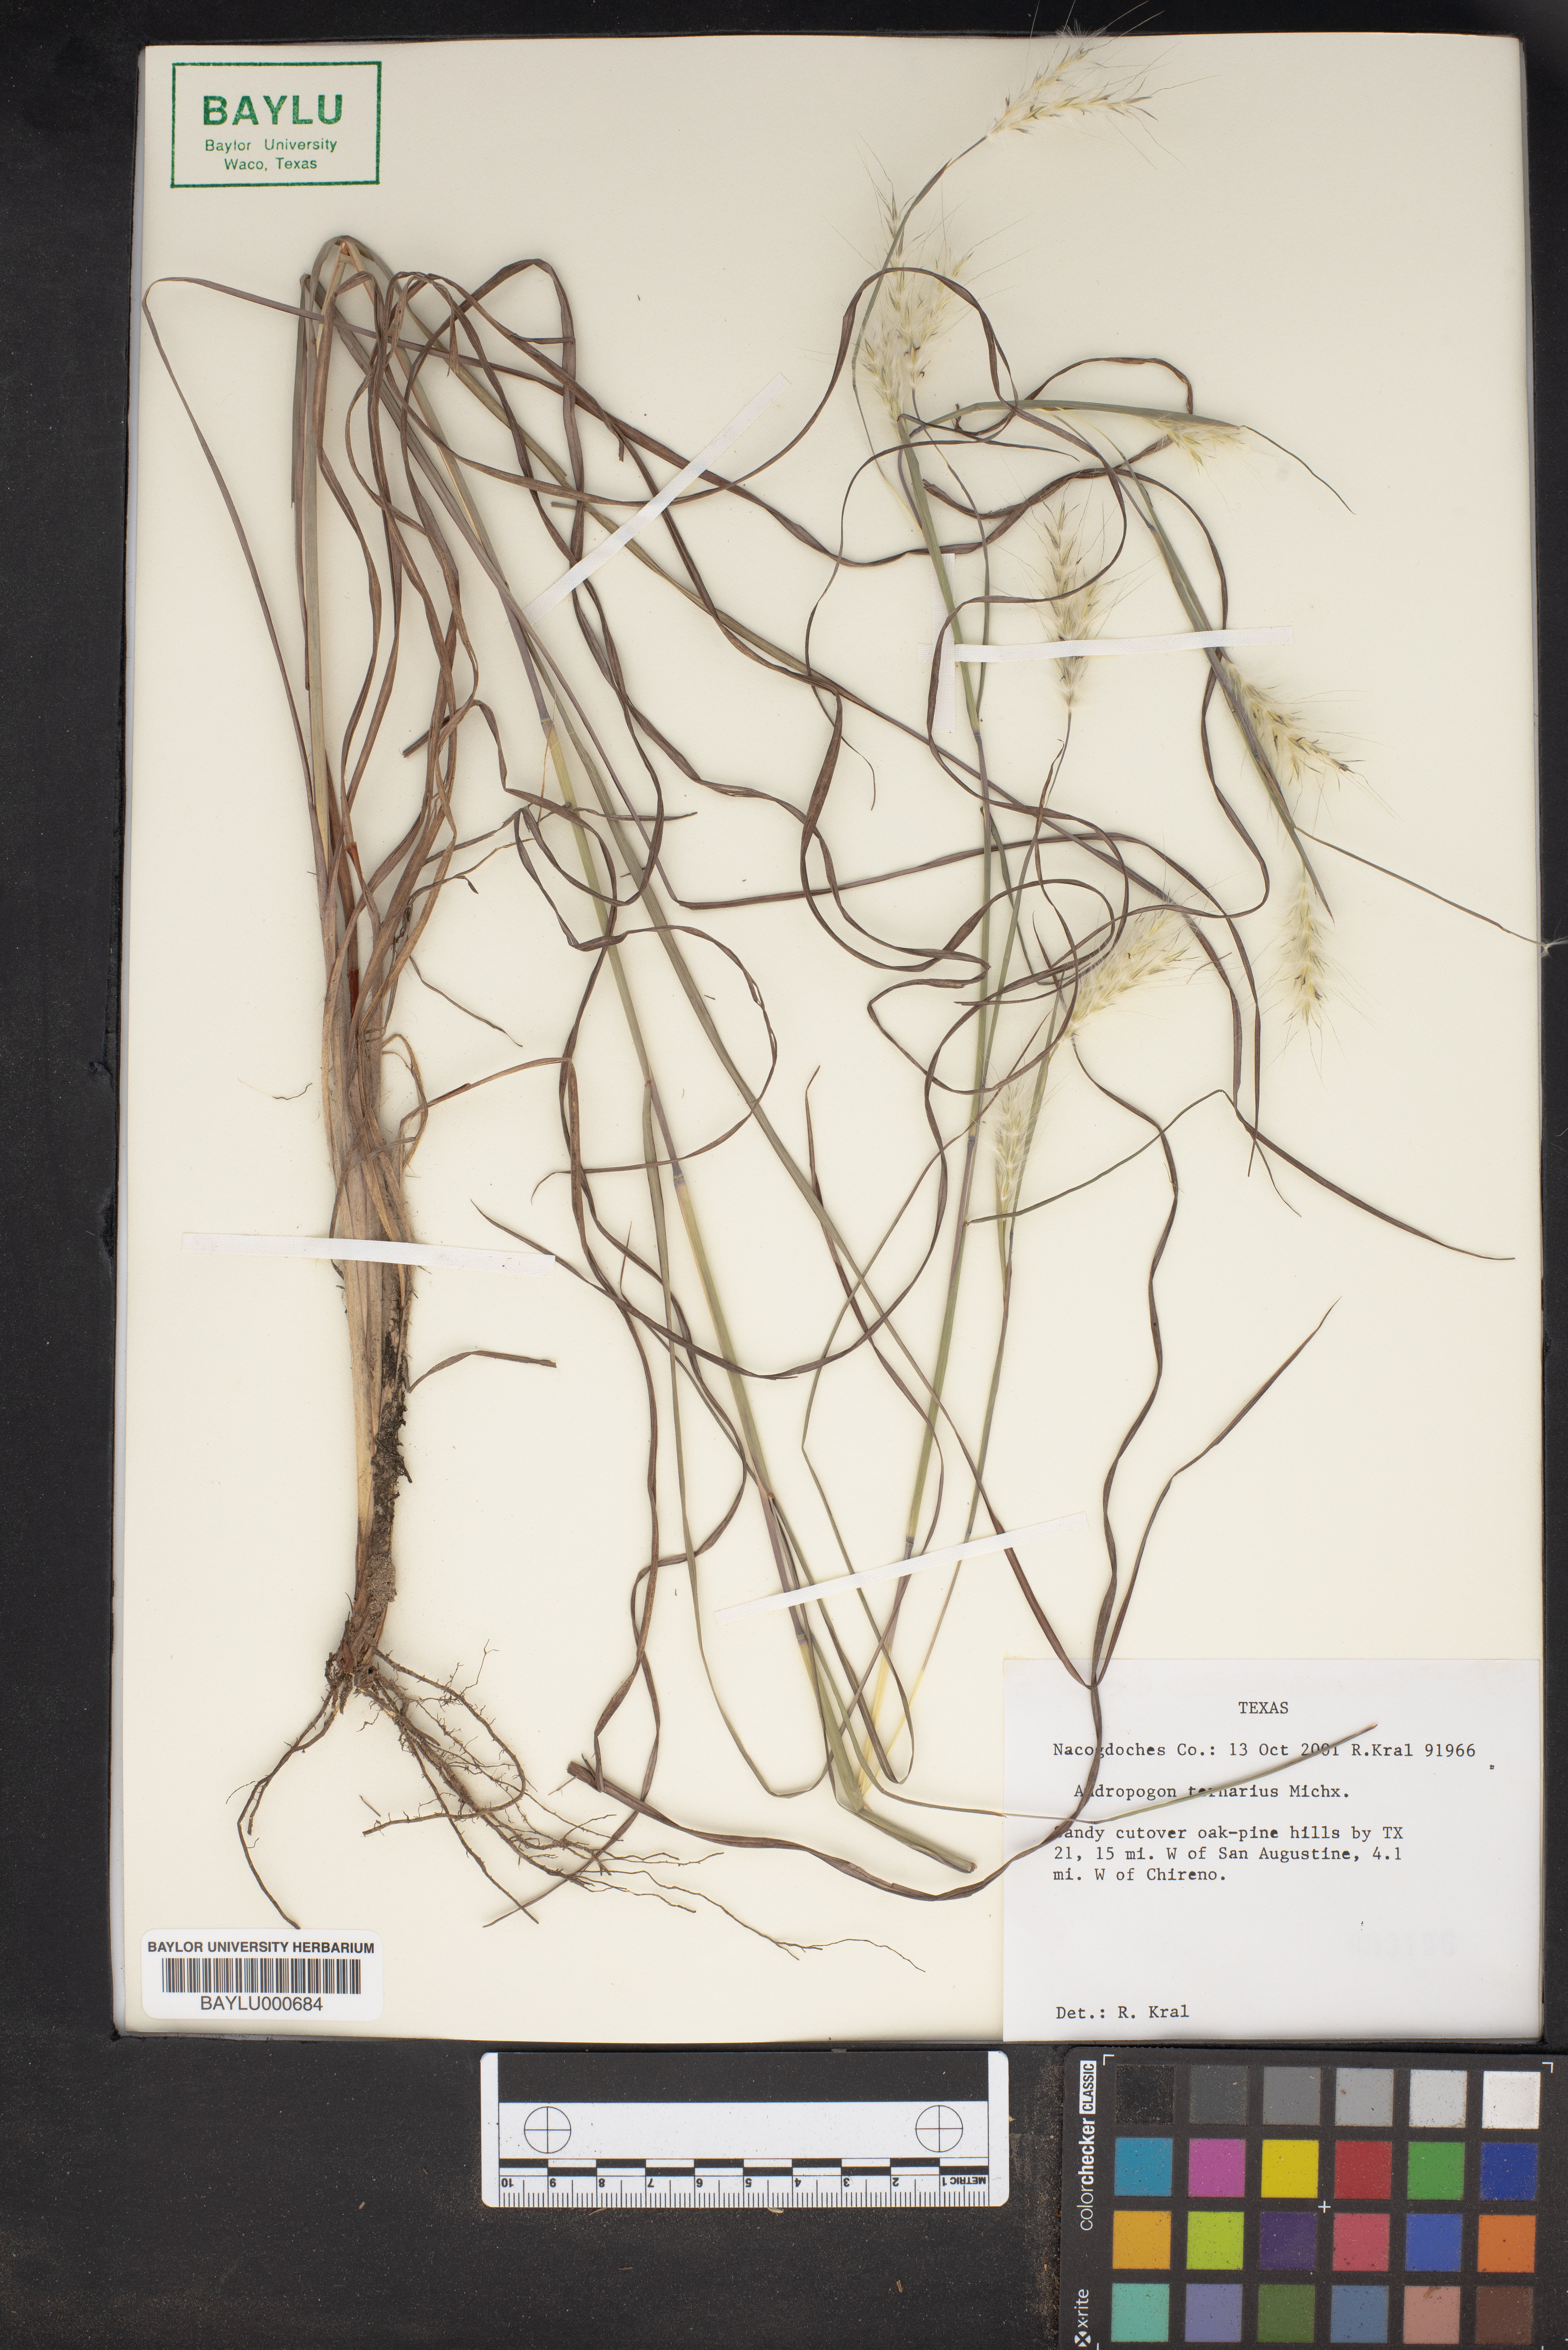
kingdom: Plantae
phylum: Tracheophyta
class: Liliopsida
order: Poales
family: Poaceae
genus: Andropogon
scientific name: Andropogon ternarius
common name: Split bluestem
